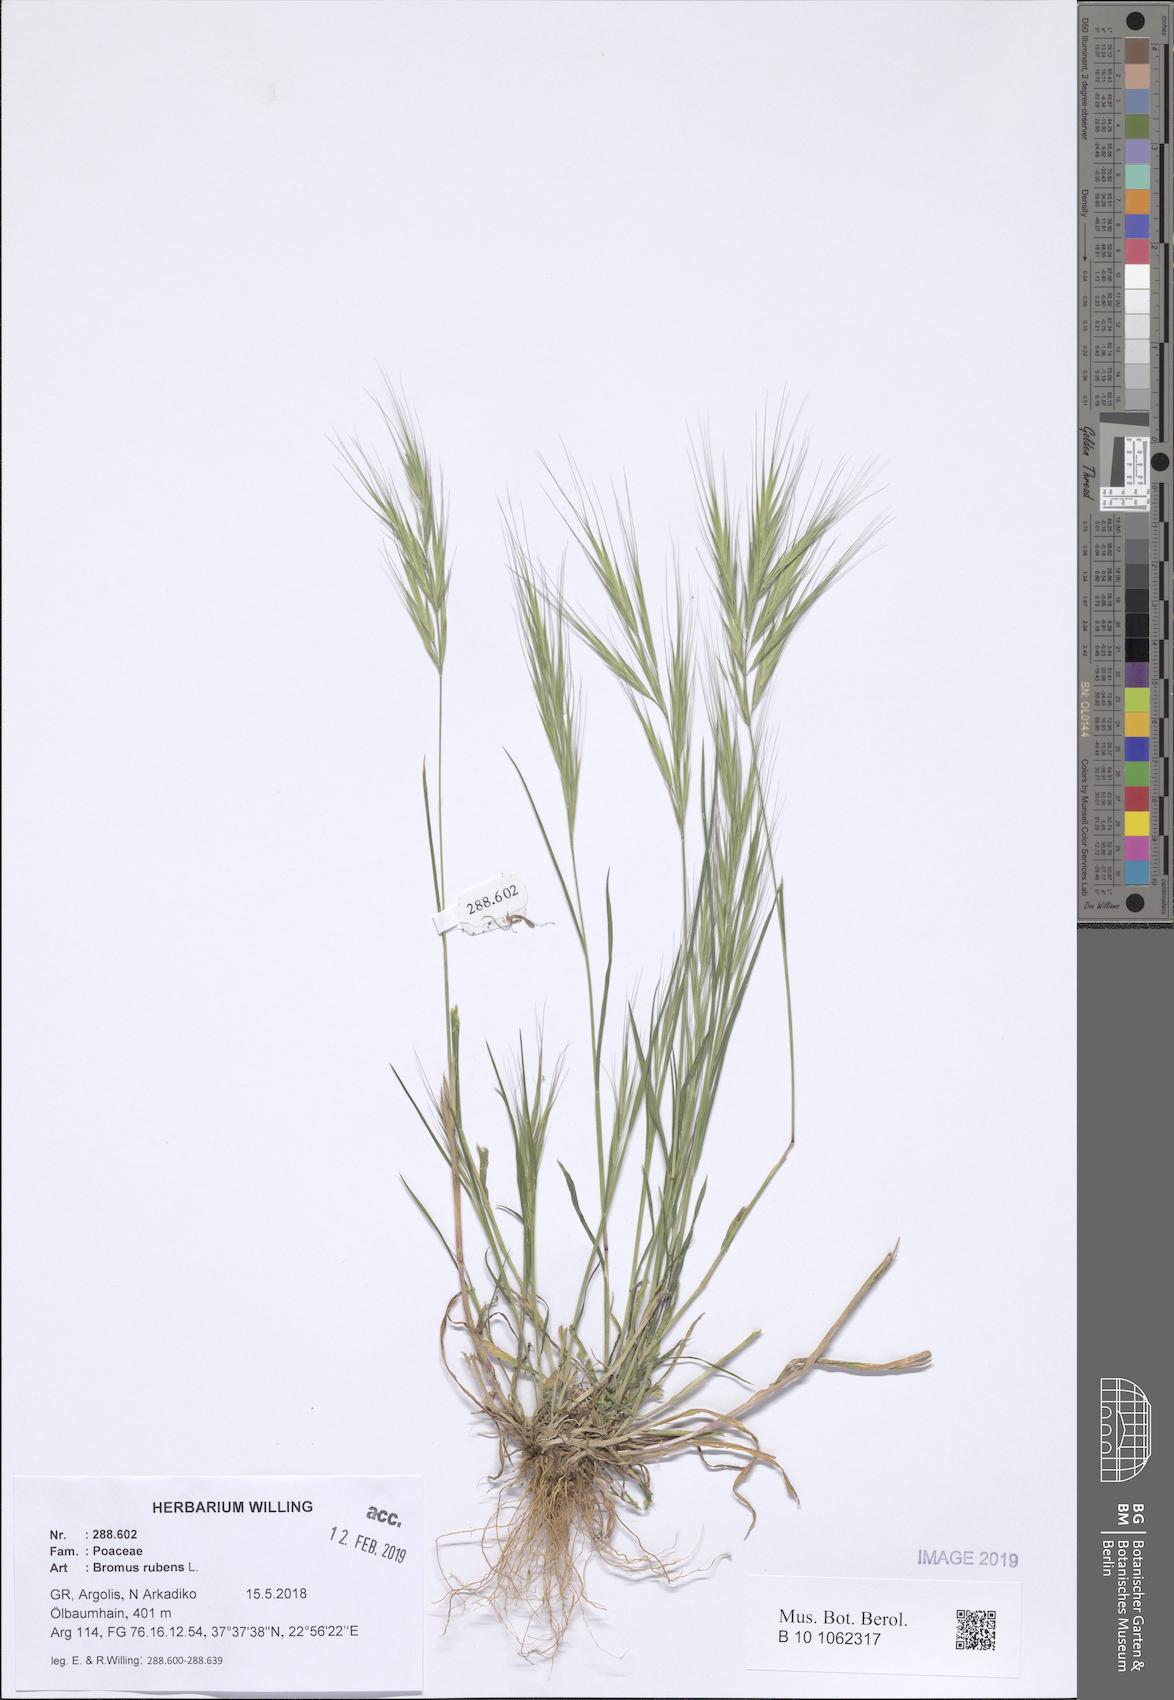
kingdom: Plantae
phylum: Tracheophyta
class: Liliopsida
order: Poales
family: Poaceae
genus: Bromus
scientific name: Bromus rubens
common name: Red brome
